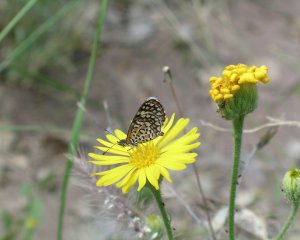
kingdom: Animalia
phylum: Arthropoda
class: Insecta
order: Lepidoptera
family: Nymphalidae
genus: Dymasia
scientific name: Dymasia dymas
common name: Tiny Checkerspot
